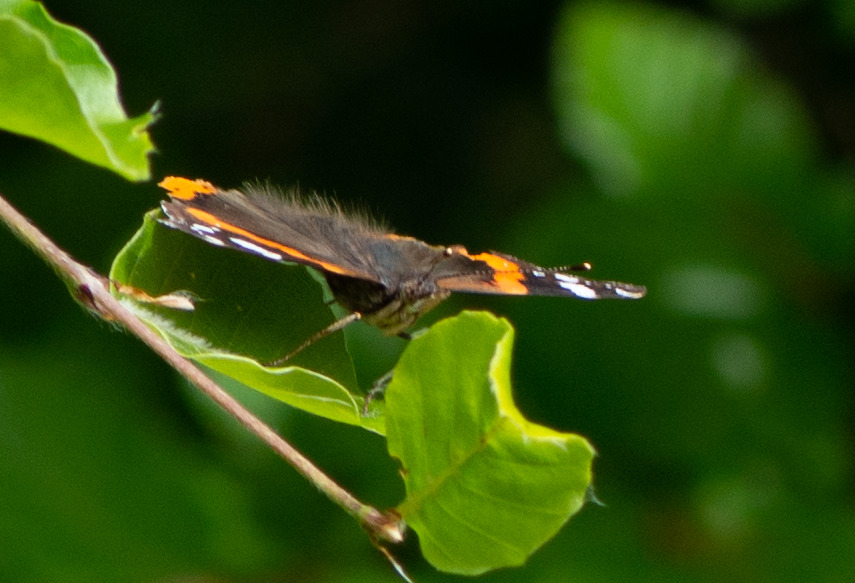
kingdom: Animalia
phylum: Arthropoda
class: Insecta
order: Lepidoptera
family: Nymphalidae
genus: Vanessa
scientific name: Vanessa atalanta
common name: Admiral
